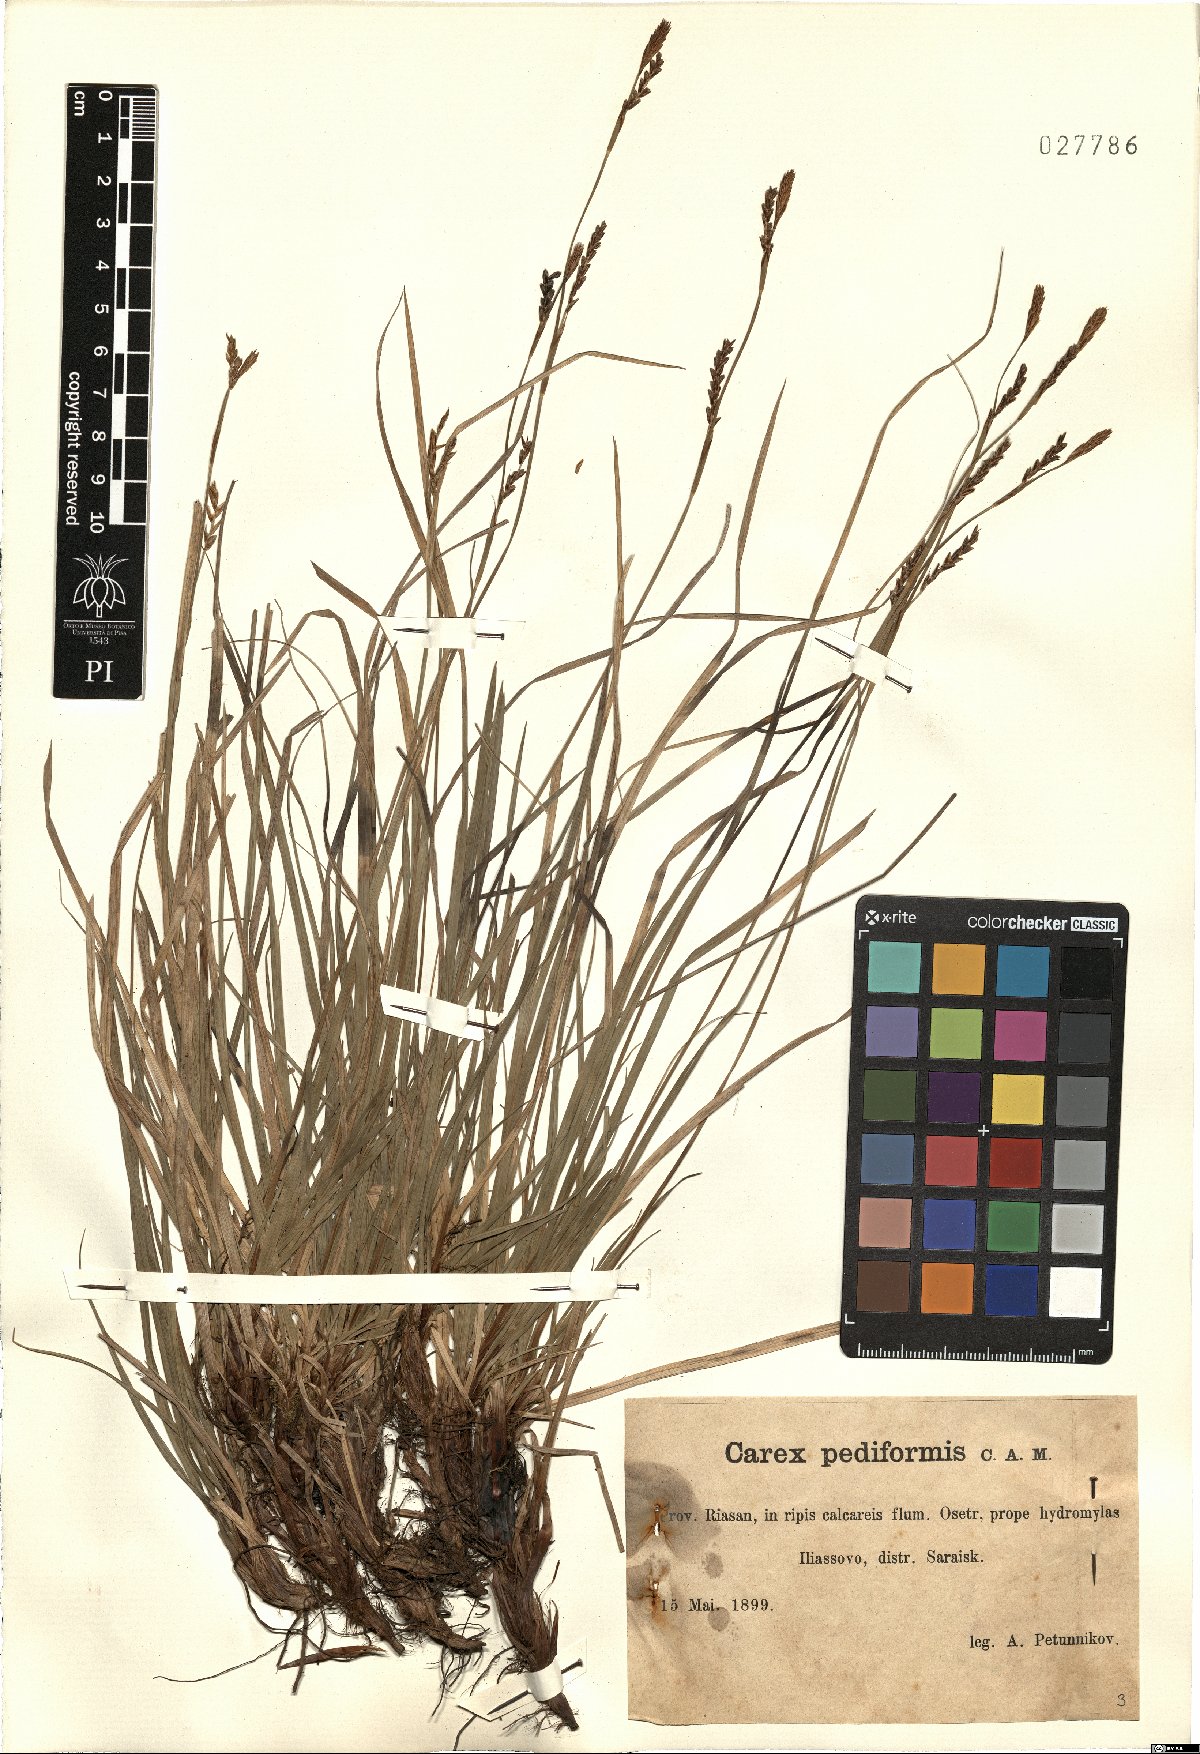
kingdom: Plantae
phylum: Tracheophyta
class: Liliopsida
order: Poales
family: Cyperaceae
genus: Carex
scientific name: Carex pediformis
